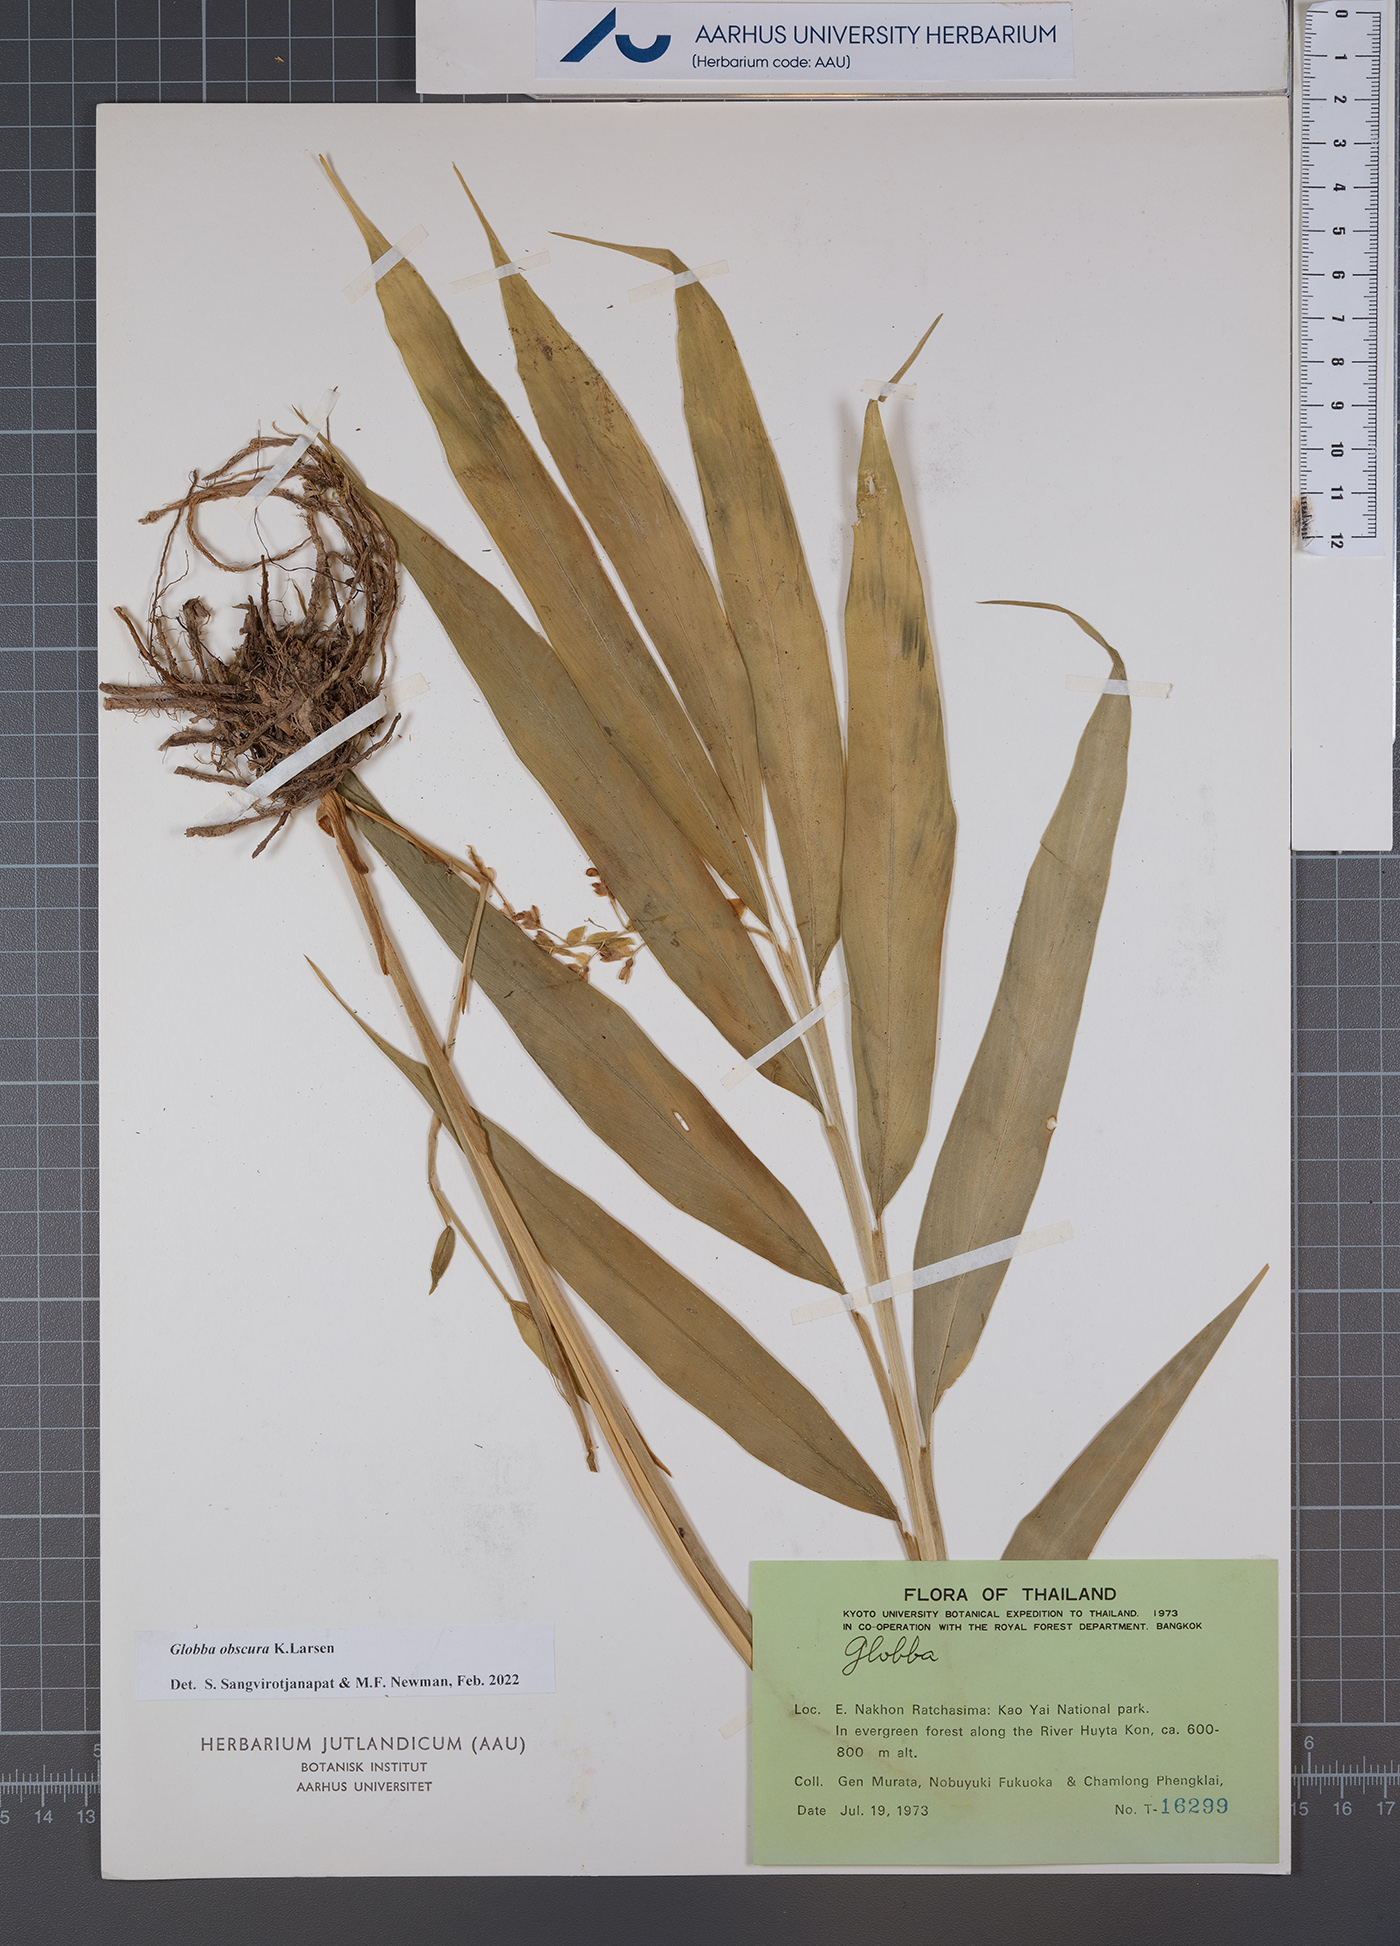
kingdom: Plantae
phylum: Tracheophyta
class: Liliopsida
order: Zingiberales
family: Zingiberaceae
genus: Globba
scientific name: Globba obscura
